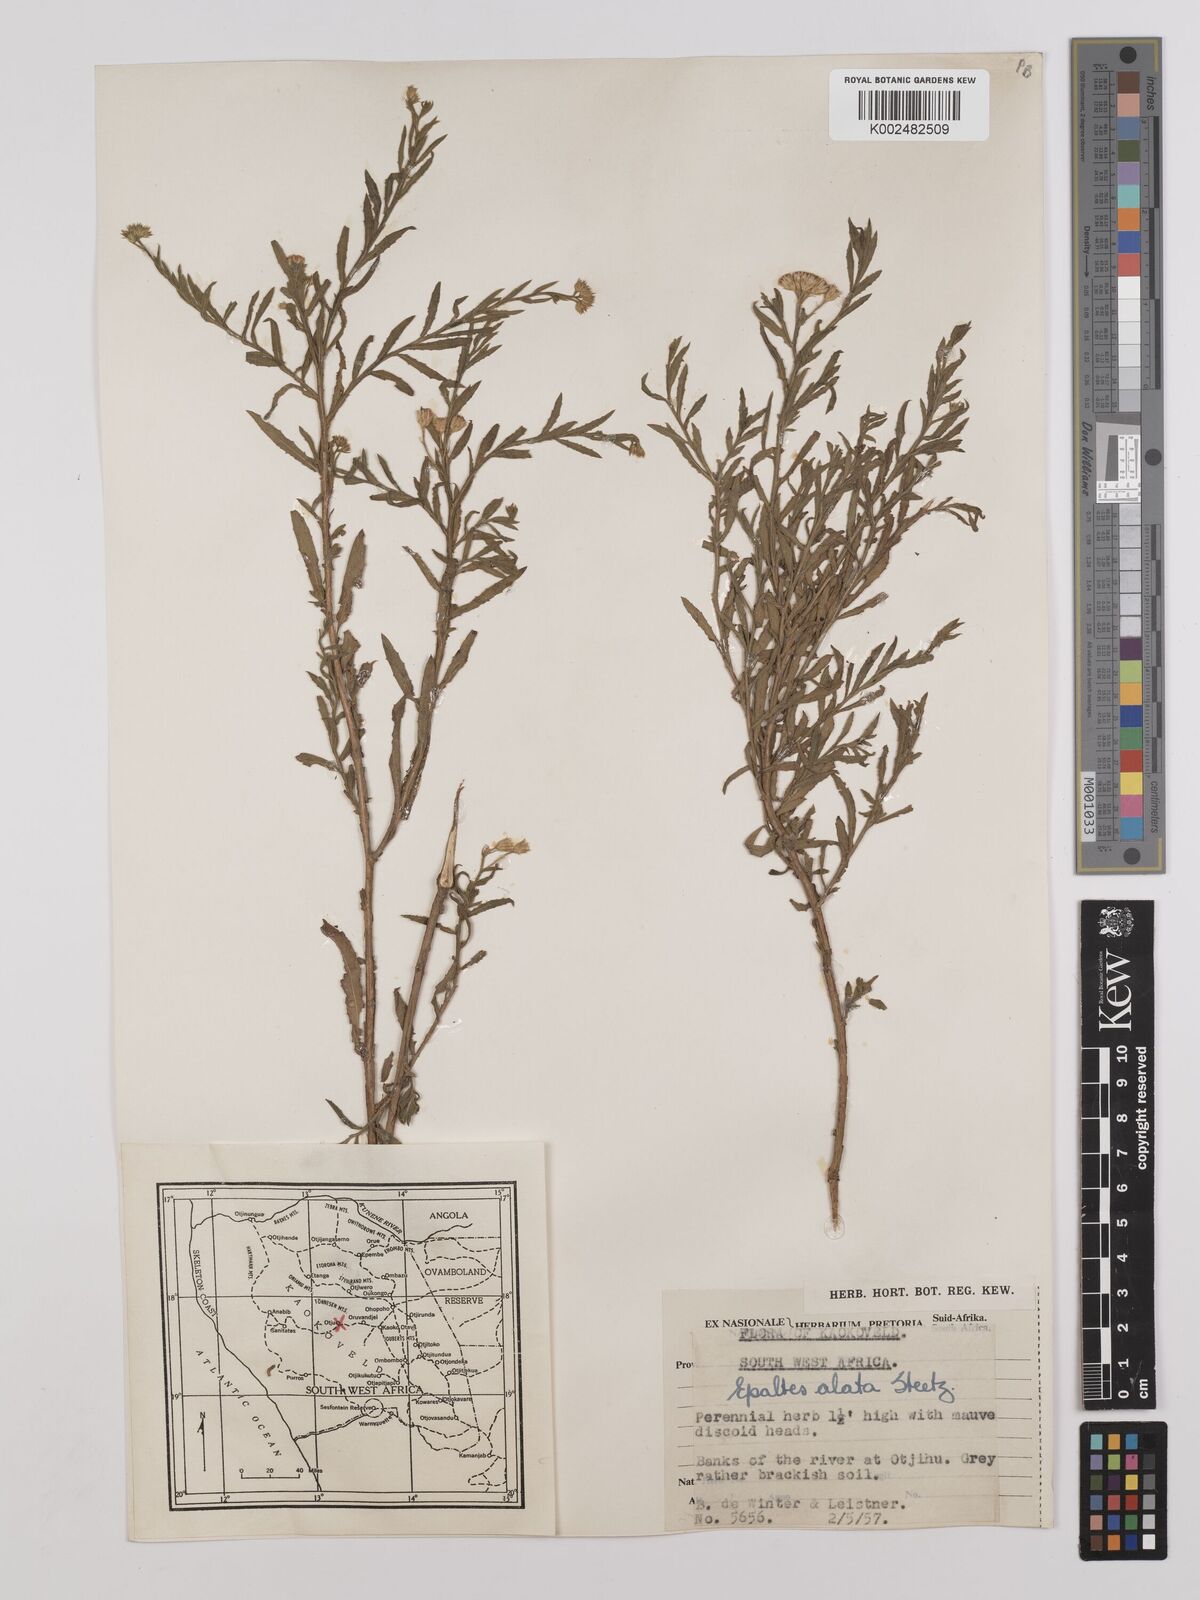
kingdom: Plantae
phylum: Tracheophyta
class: Magnoliopsida
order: Asterales
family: Asteraceae
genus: Litogyne
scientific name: Litogyne gariepina
